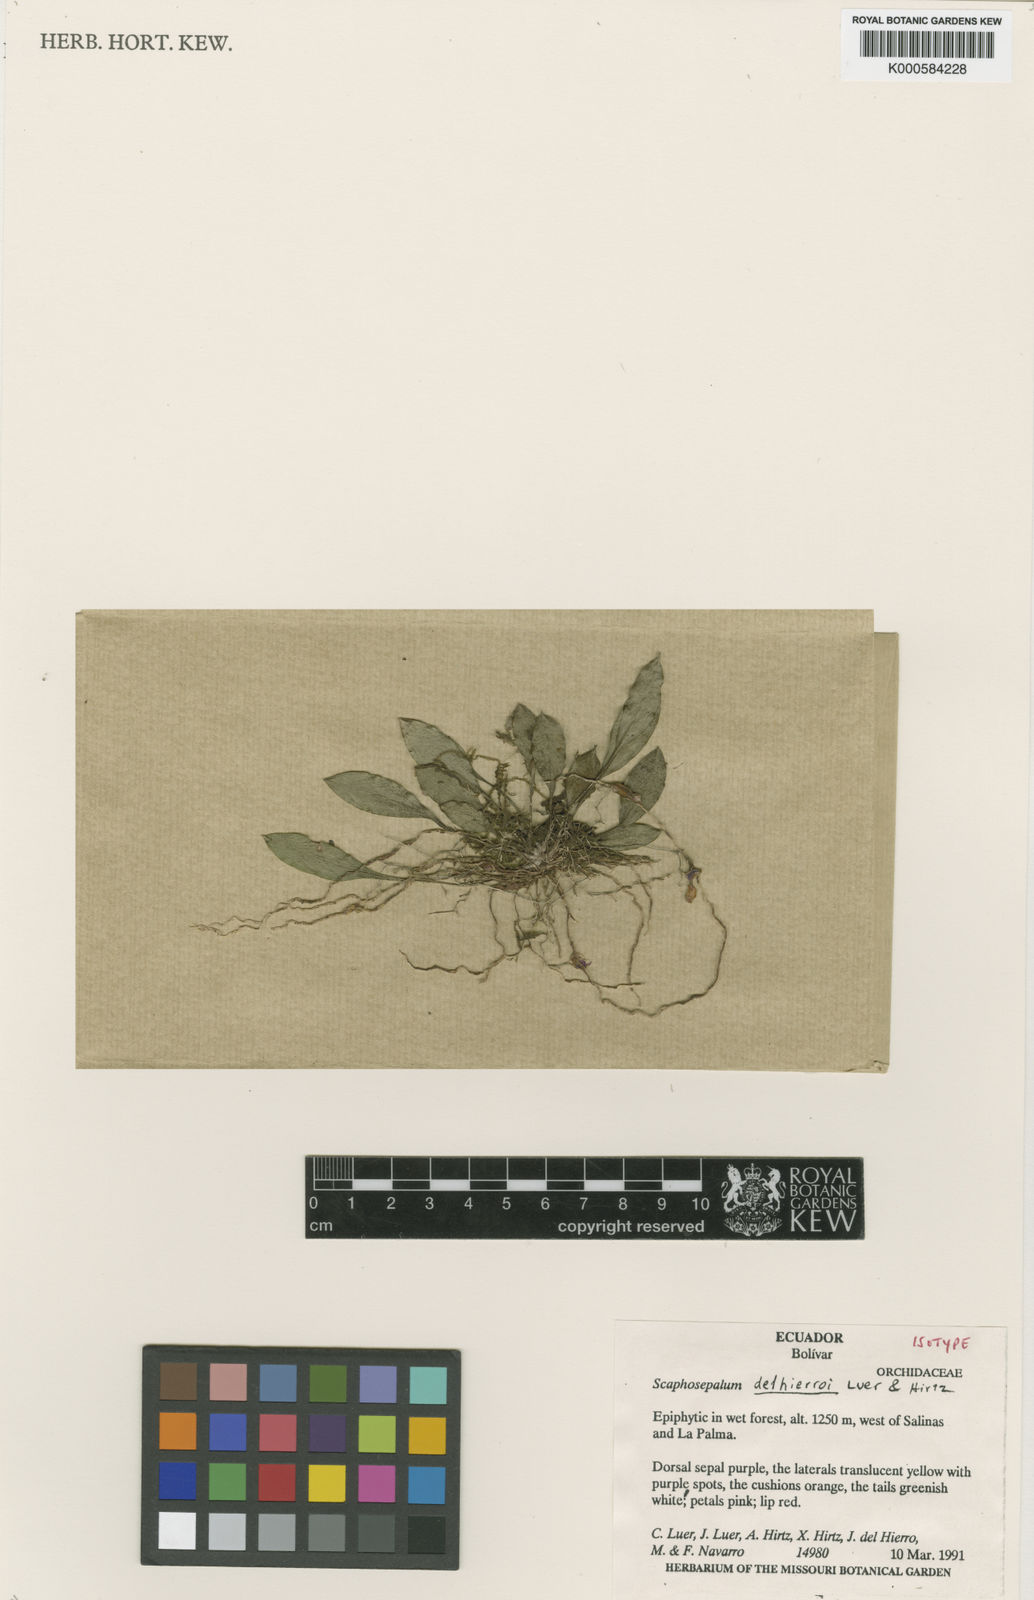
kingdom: Plantae
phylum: Tracheophyta
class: Liliopsida
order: Asparagales
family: Orchidaceae
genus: Scaphosepalum
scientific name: Scaphosepalum delhierroi
